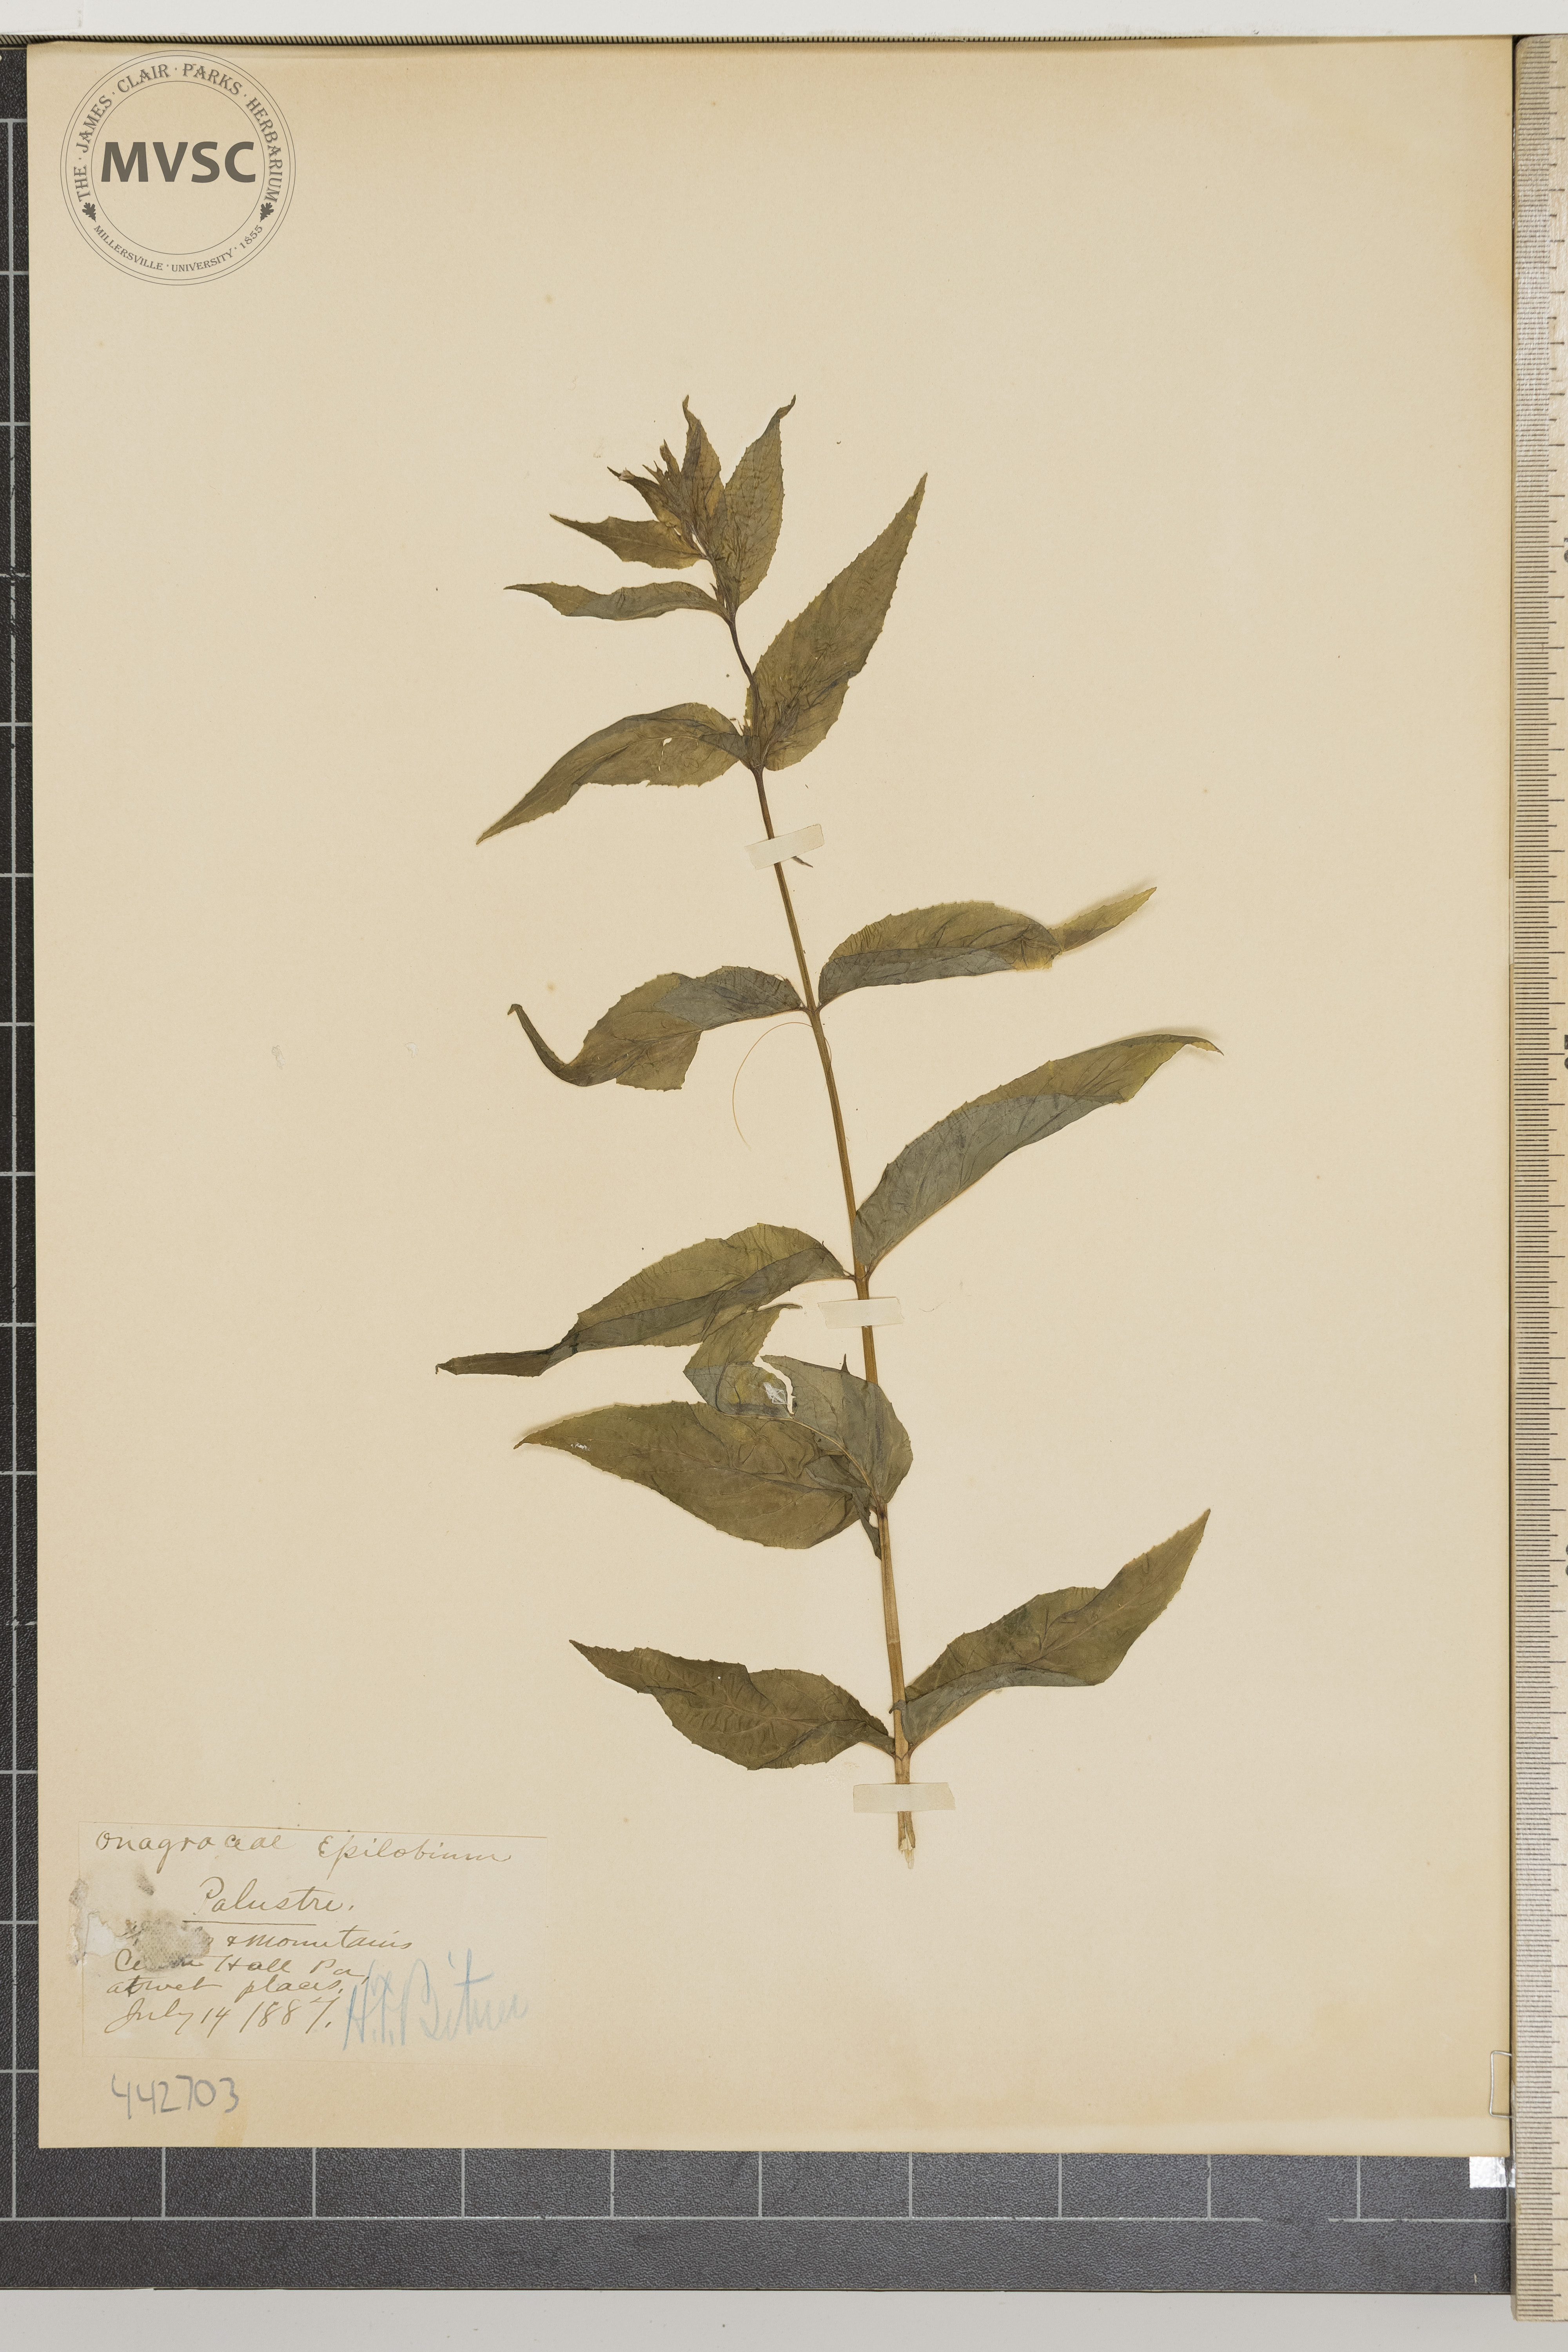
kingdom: Plantae
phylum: Tracheophyta
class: Magnoliopsida
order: Myrtales
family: Onagraceae
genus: Epilobium
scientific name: Epilobium ciliatum
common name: American willowherb
